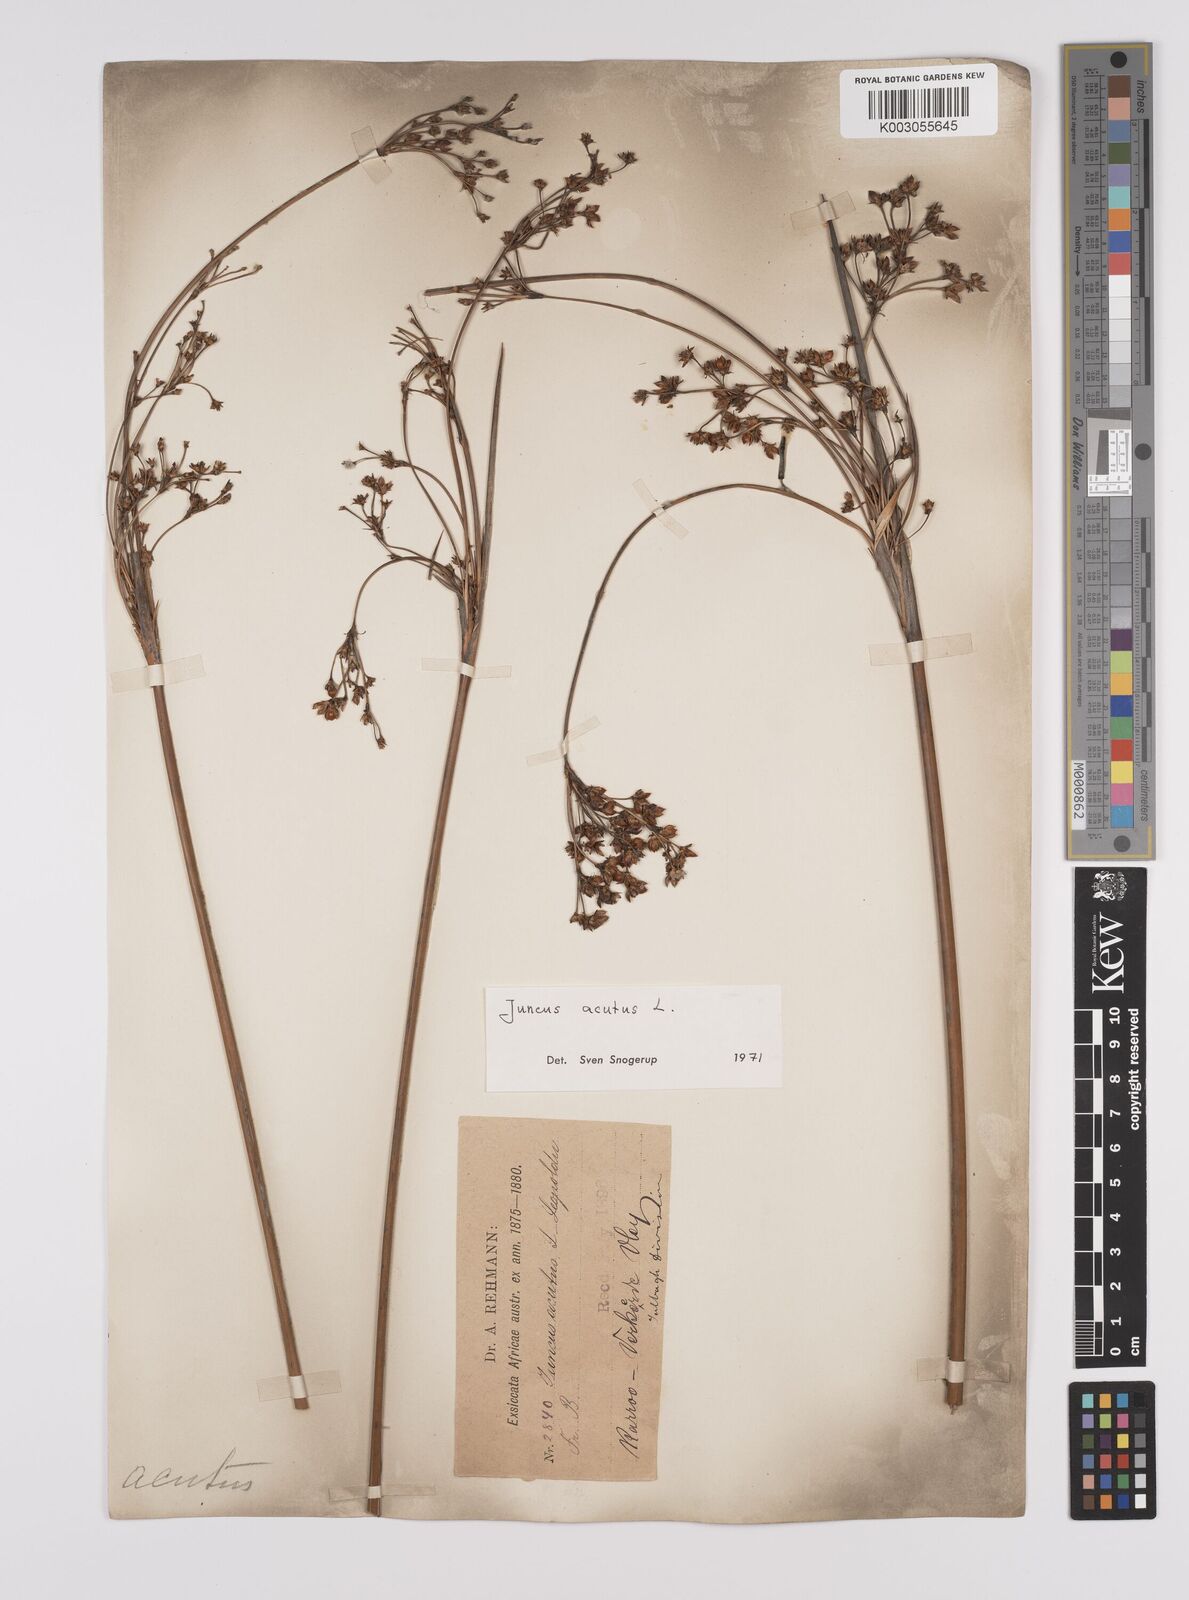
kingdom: Plantae
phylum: Tracheophyta
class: Liliopsida
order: Poales
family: Juncaceae
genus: Juncus
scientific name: Juncus acutus
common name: Sharp rush
